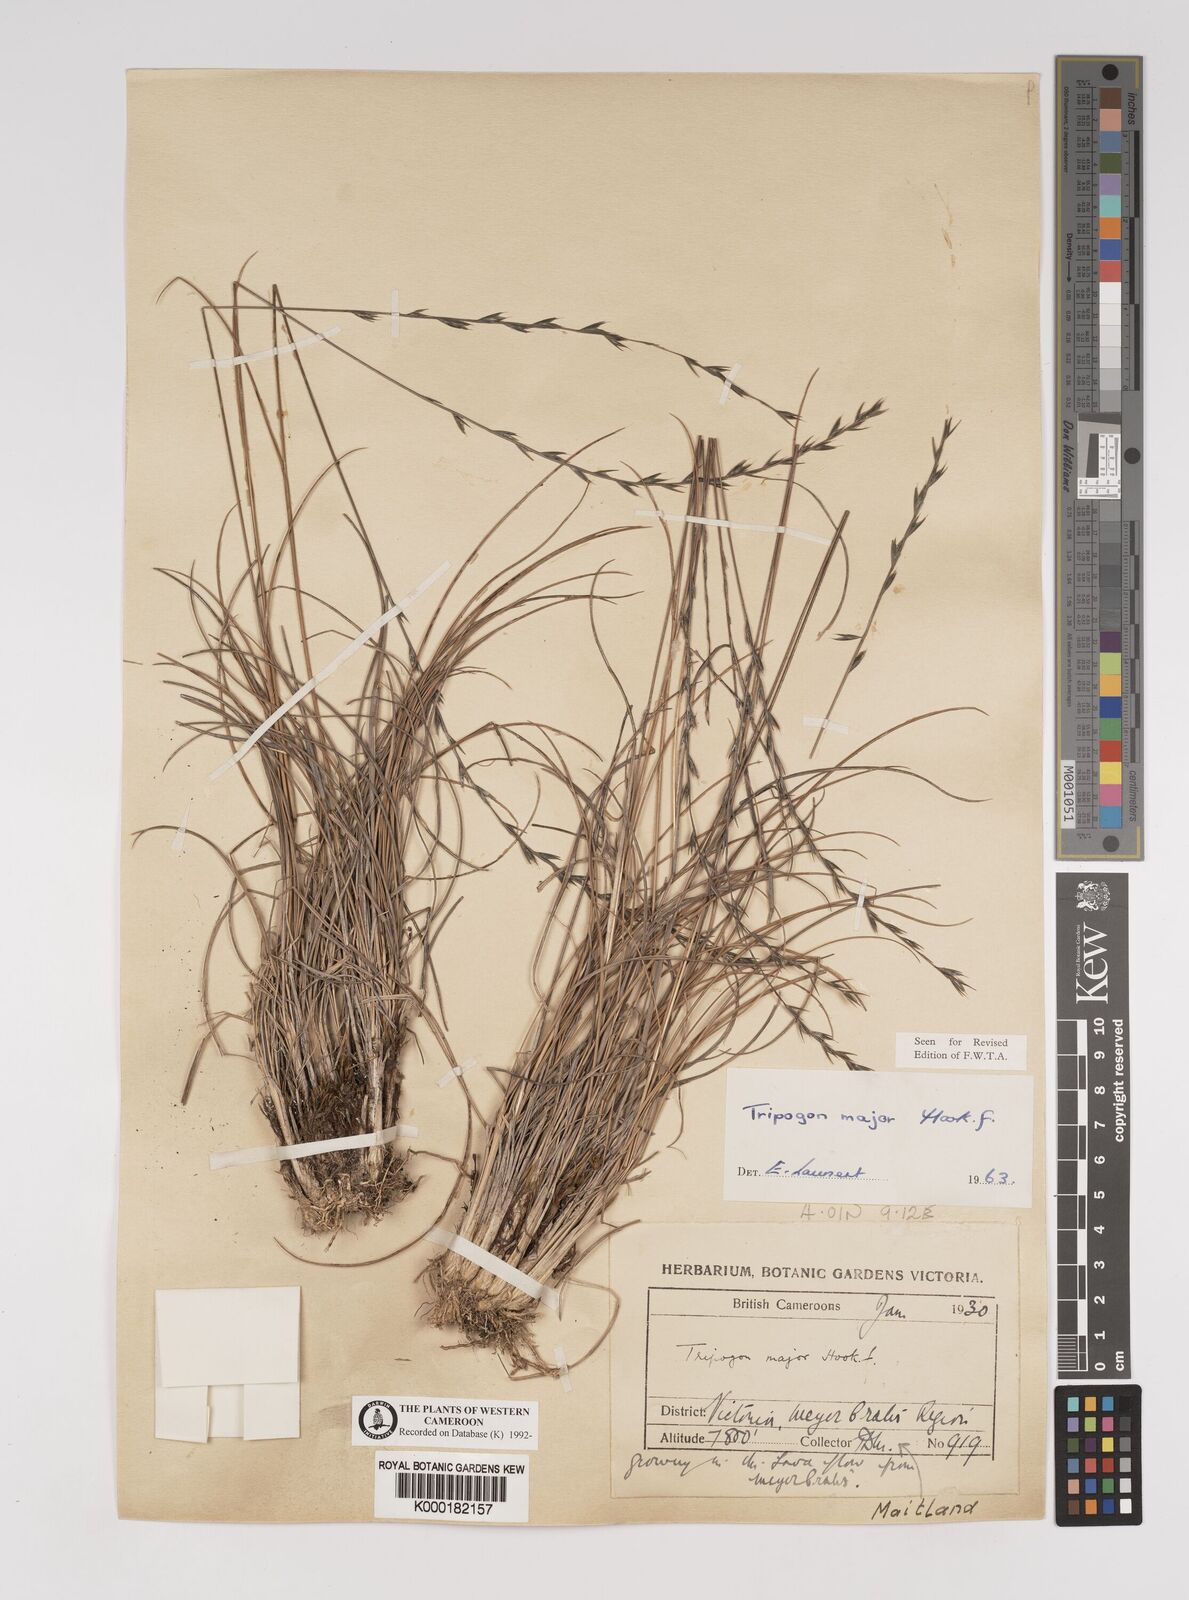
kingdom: Plantae
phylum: Tracheophyta
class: Liliopsida
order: Poales
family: Poaceae
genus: Tripogon
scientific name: Tripogon major
